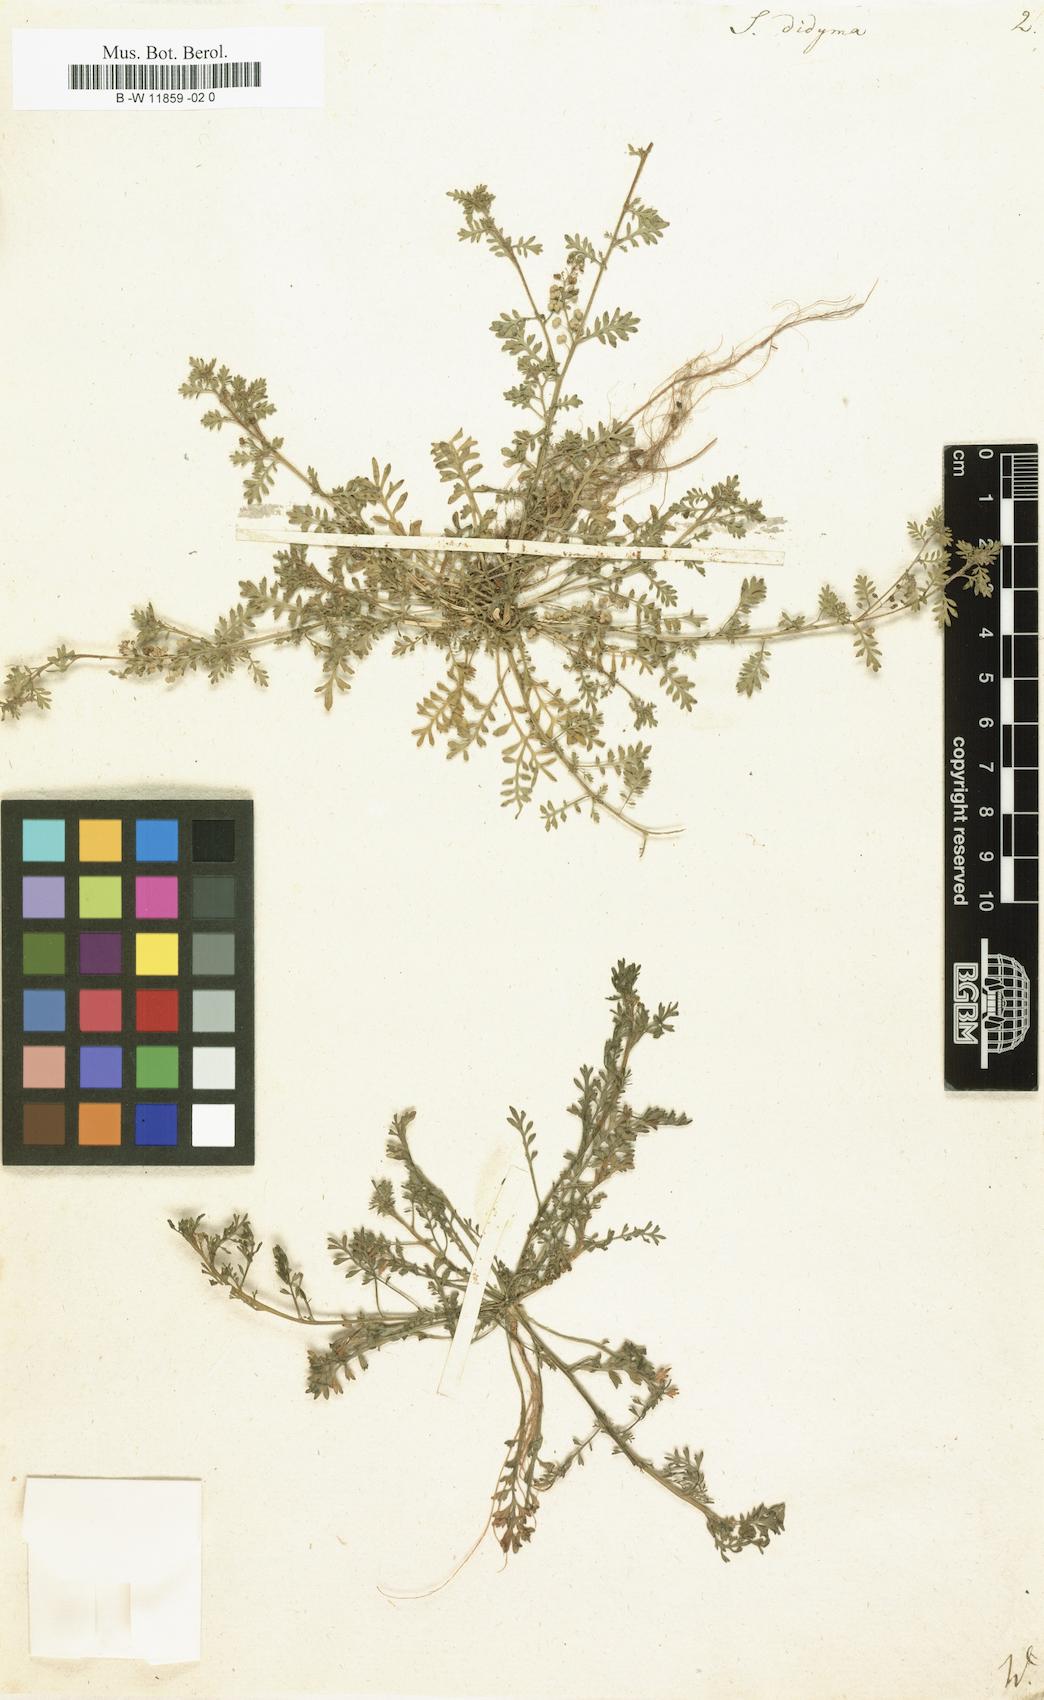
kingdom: Plantae
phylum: Tracheophyta
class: Magnoliopsida
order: Brassicales
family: Brassicaceae
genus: Lepidium
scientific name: Lepidium
